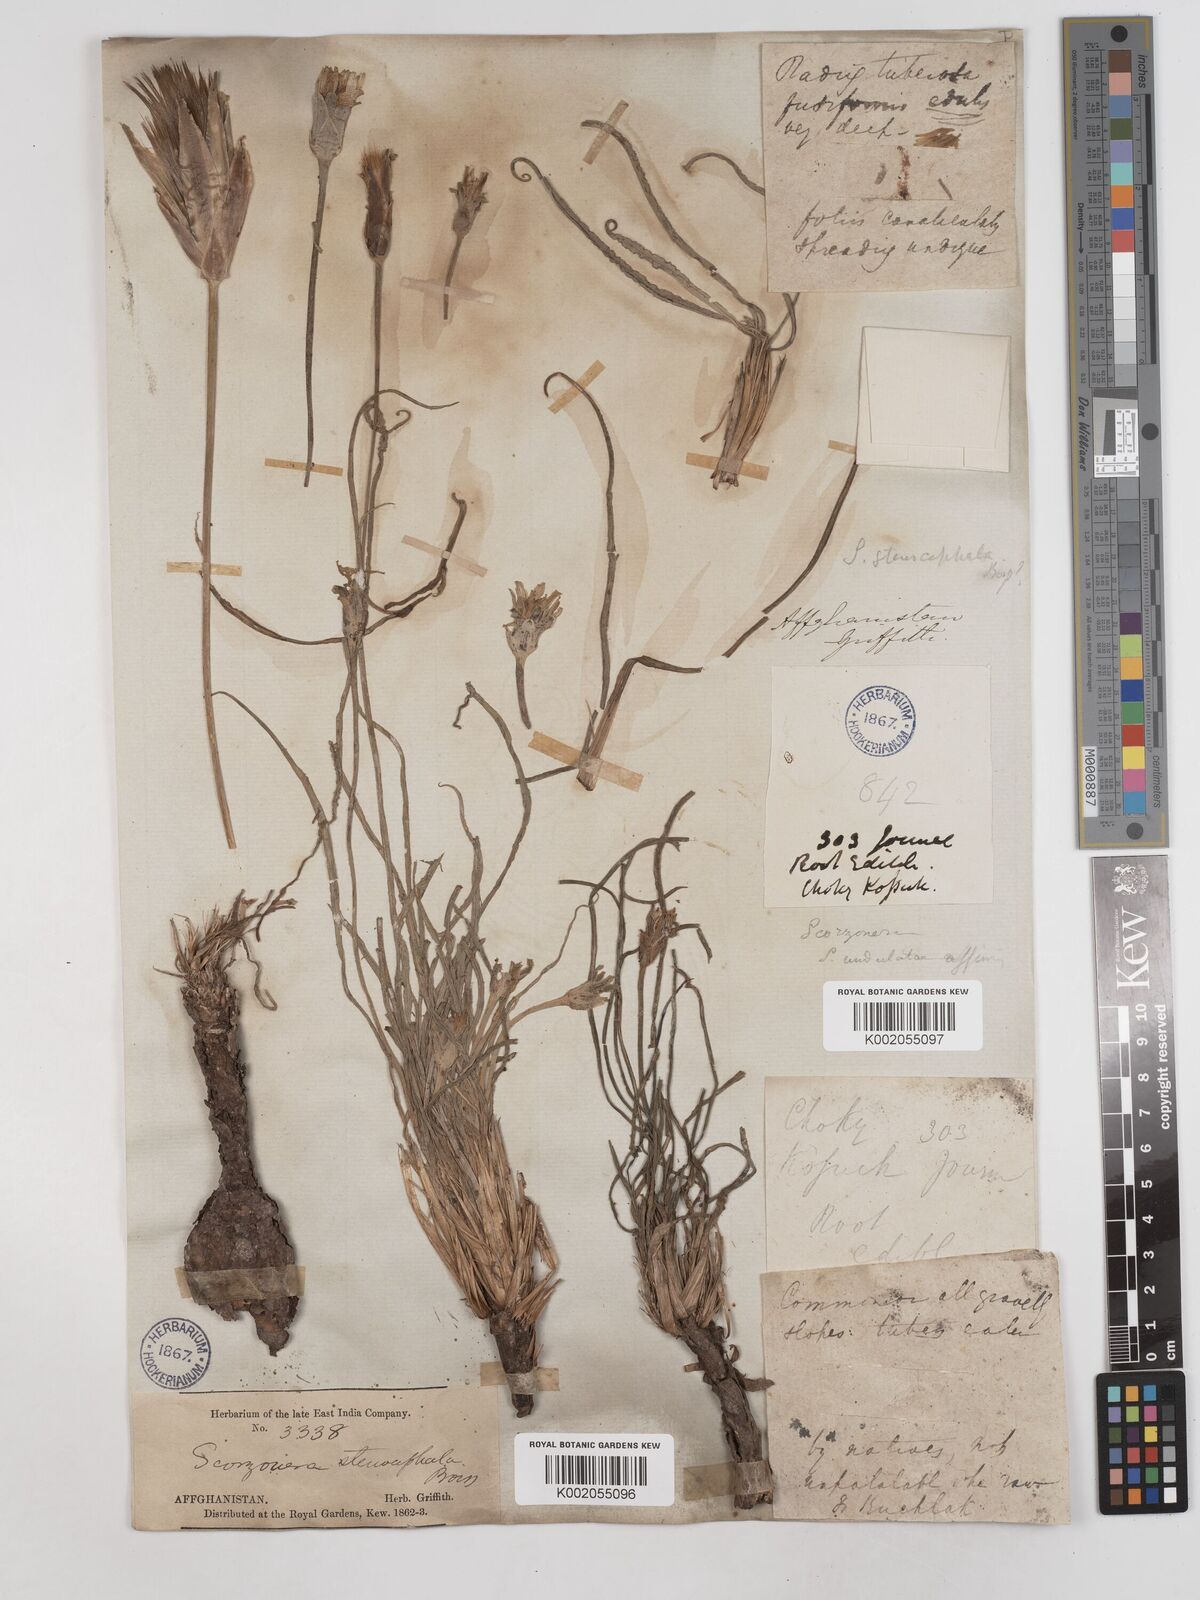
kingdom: Plantae
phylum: Tracheophyta
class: Magnoliopsida
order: Asterales
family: Asteraceae
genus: Candollea
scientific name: Candollea szowitzii
